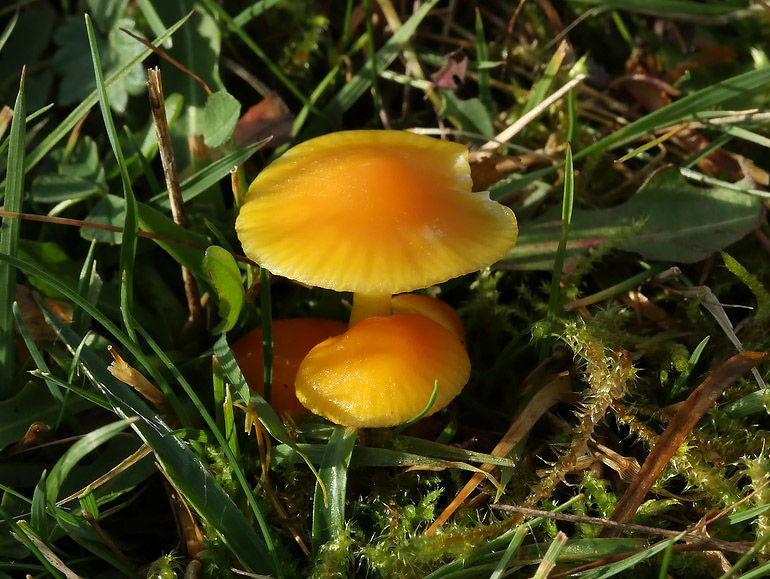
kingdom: Fungi
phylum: Basidiomycota
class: Agaricomycetes
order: Agaricales
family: Hygrophoraceae
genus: Hygrocybe
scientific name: Hygrocybe ceracea
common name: voksgul vokshat
